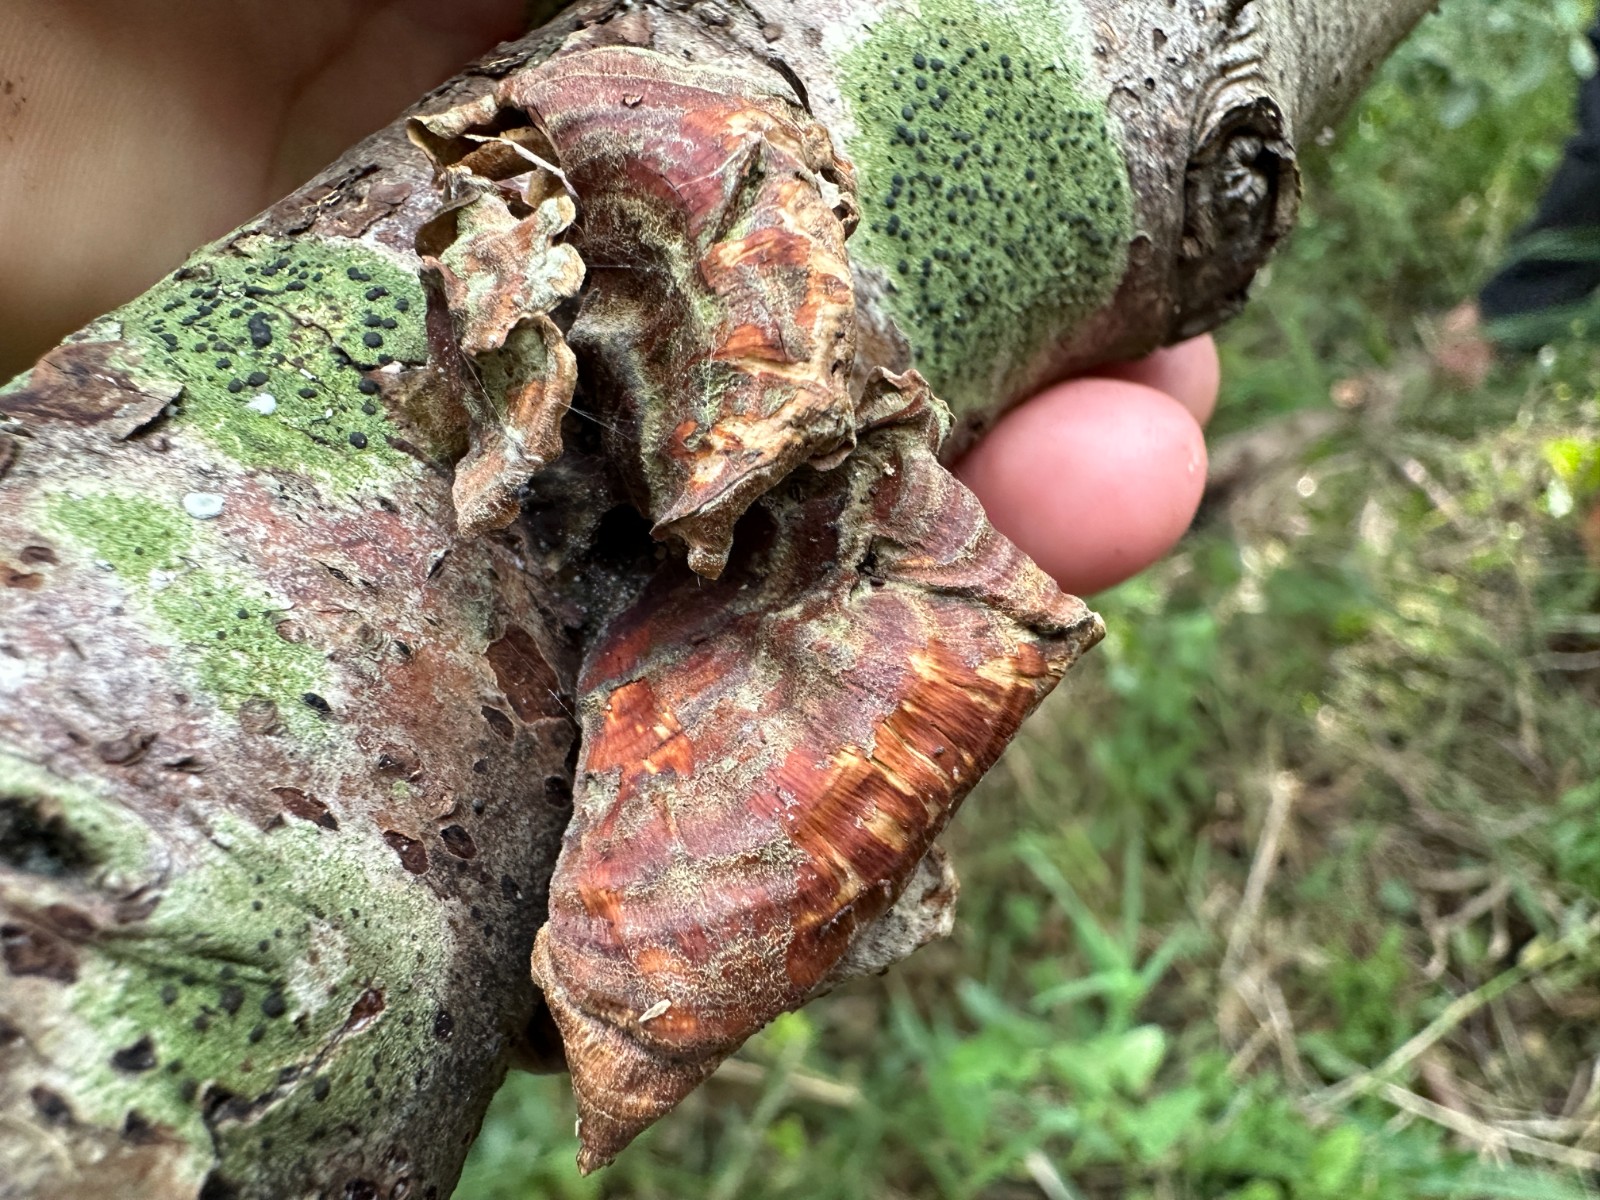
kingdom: Fungi
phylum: Basidiomycota
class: Agaricomycetes
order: Russulales
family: Stereaceae
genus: Stereum
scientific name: Stereum subtomentosum
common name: smuk lædersvamp
